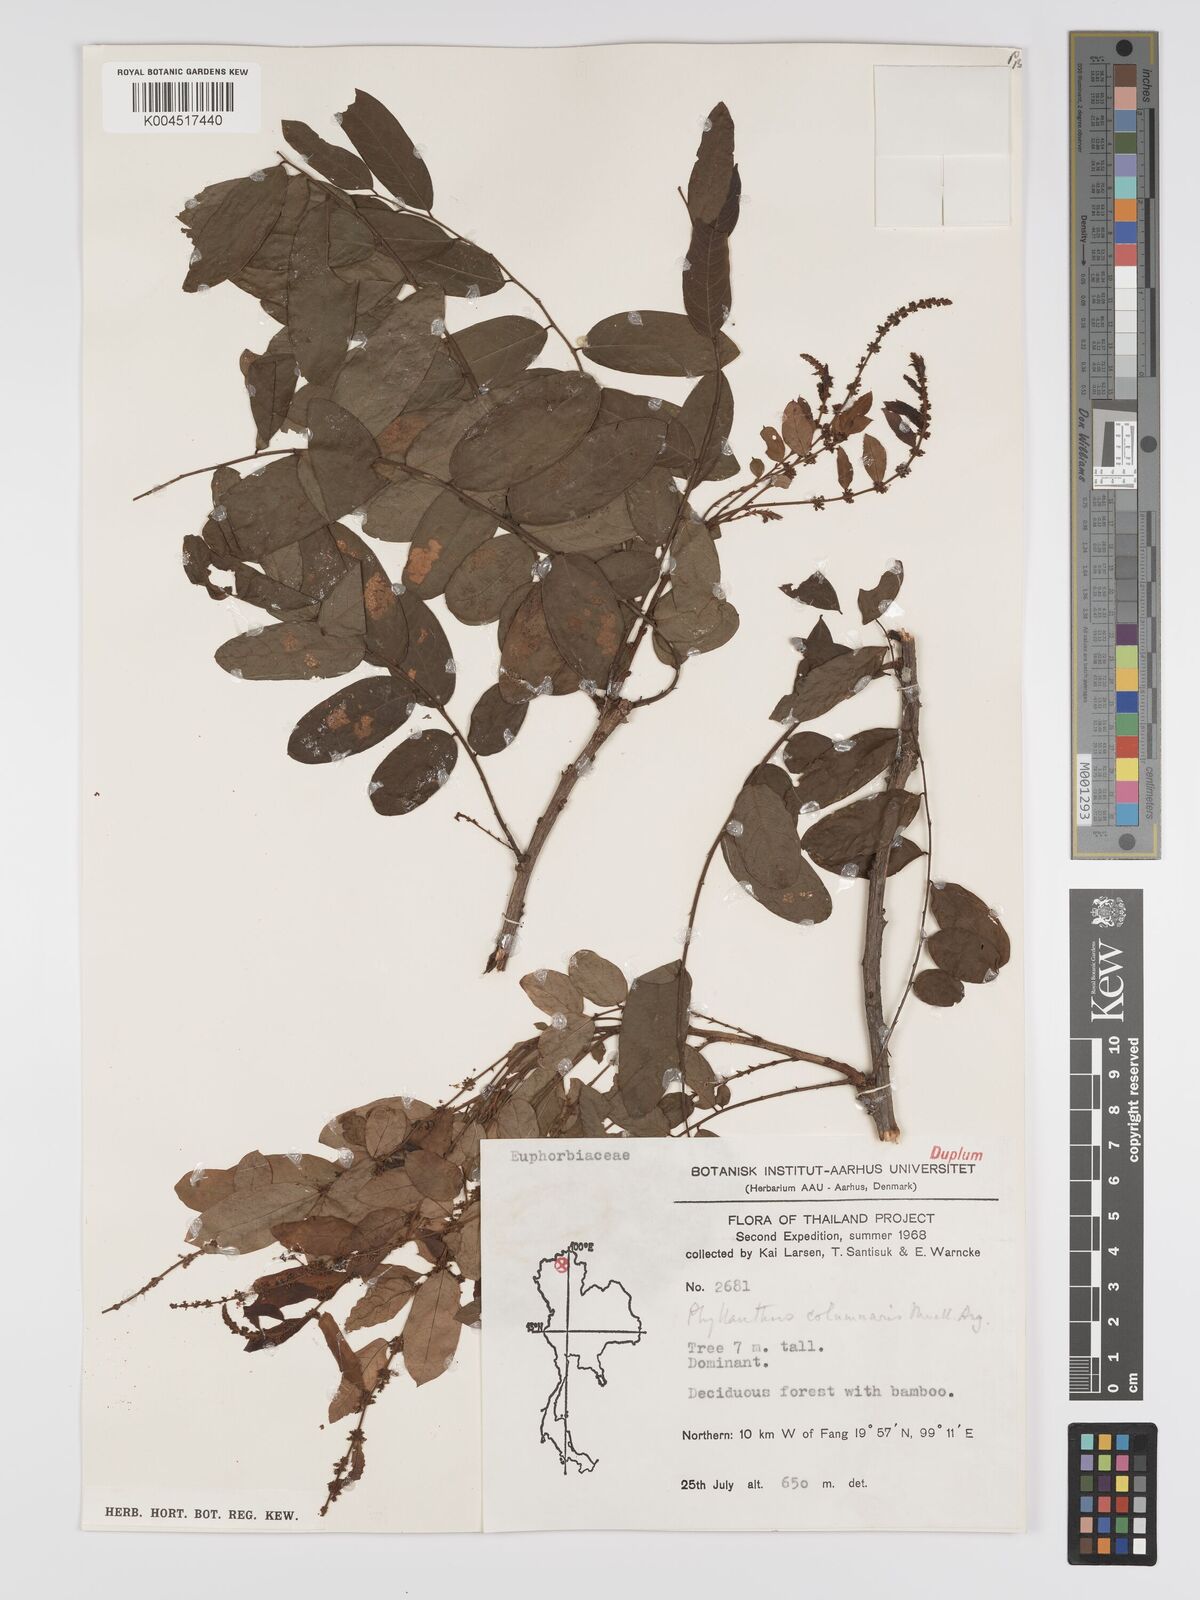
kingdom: Plantae
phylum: Tracheophyta
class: Magnoliopsida
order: Malpighiales
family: Phyllanthaceae
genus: Phyllanthus
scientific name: Phyllanthus
